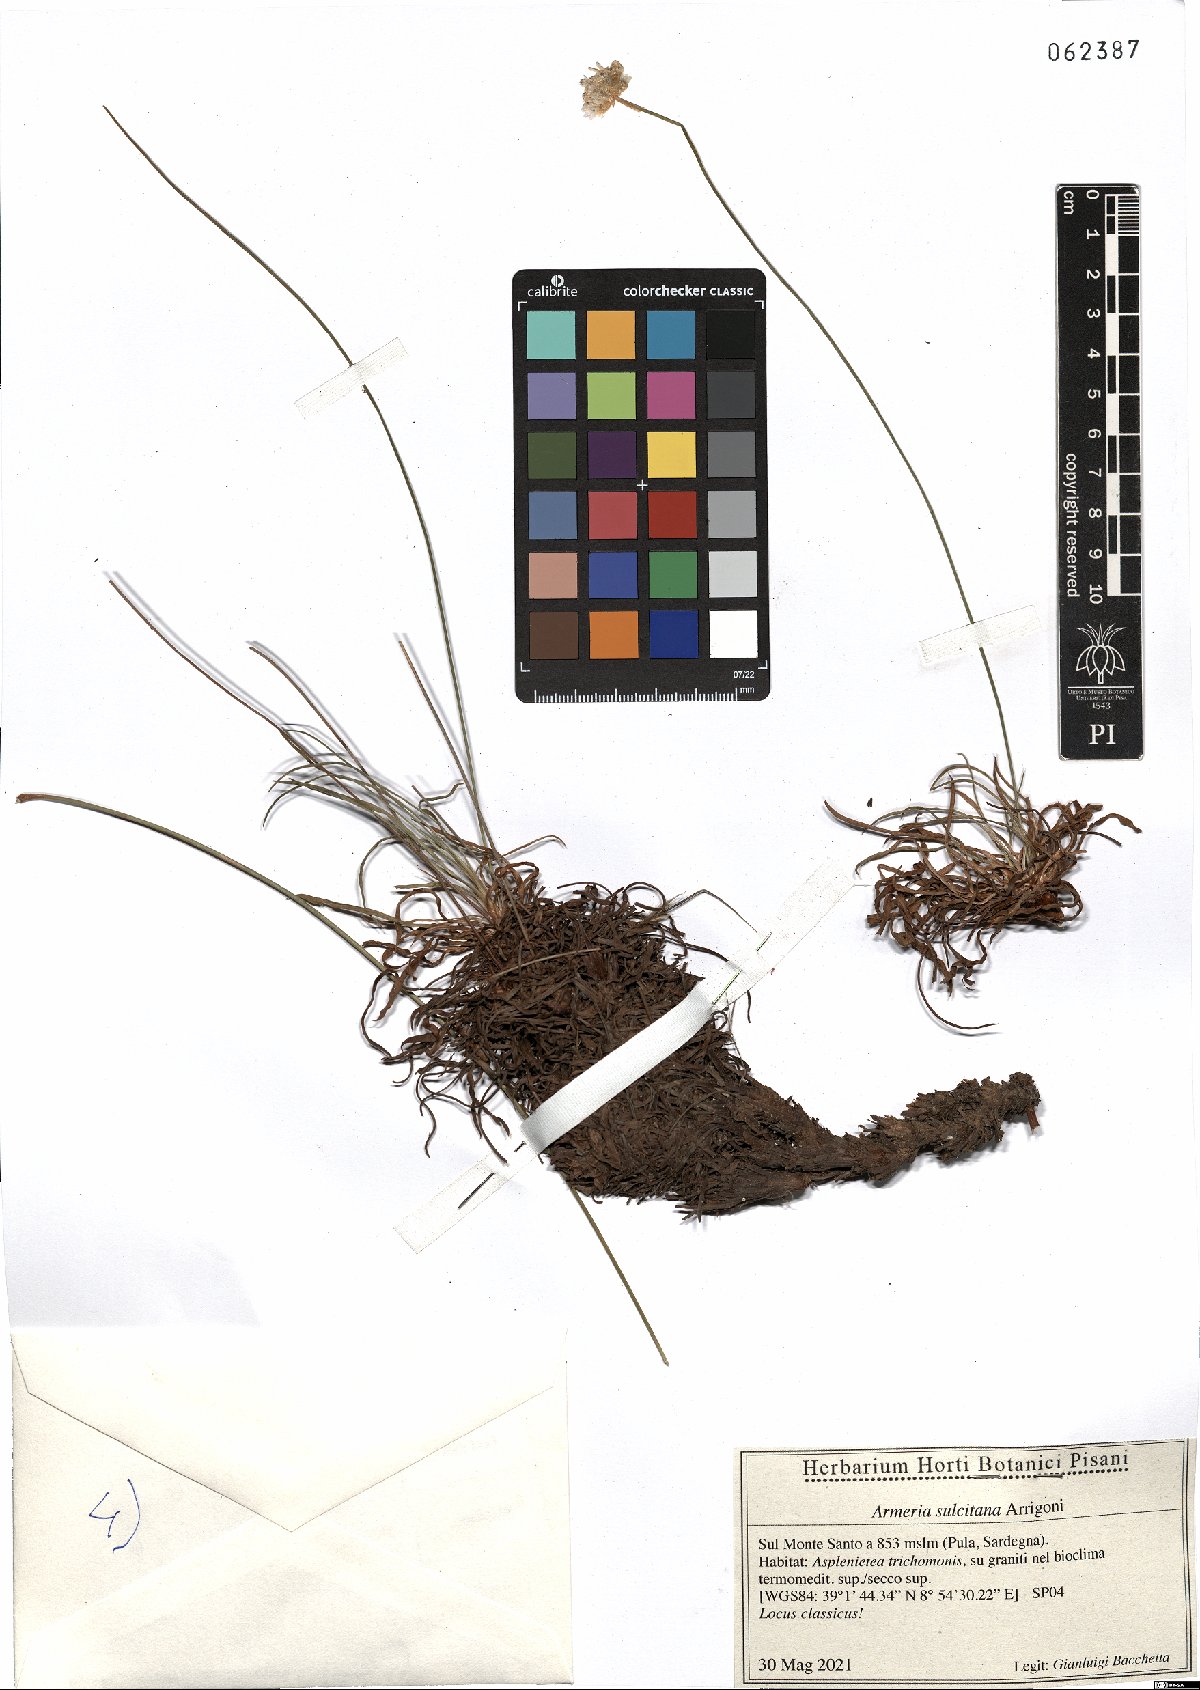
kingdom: Plantae
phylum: Tracheophyta
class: Magnoliopsida
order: Caryophyllales
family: Plumbaginaceae
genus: Armeria
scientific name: Armeria sulcitana
